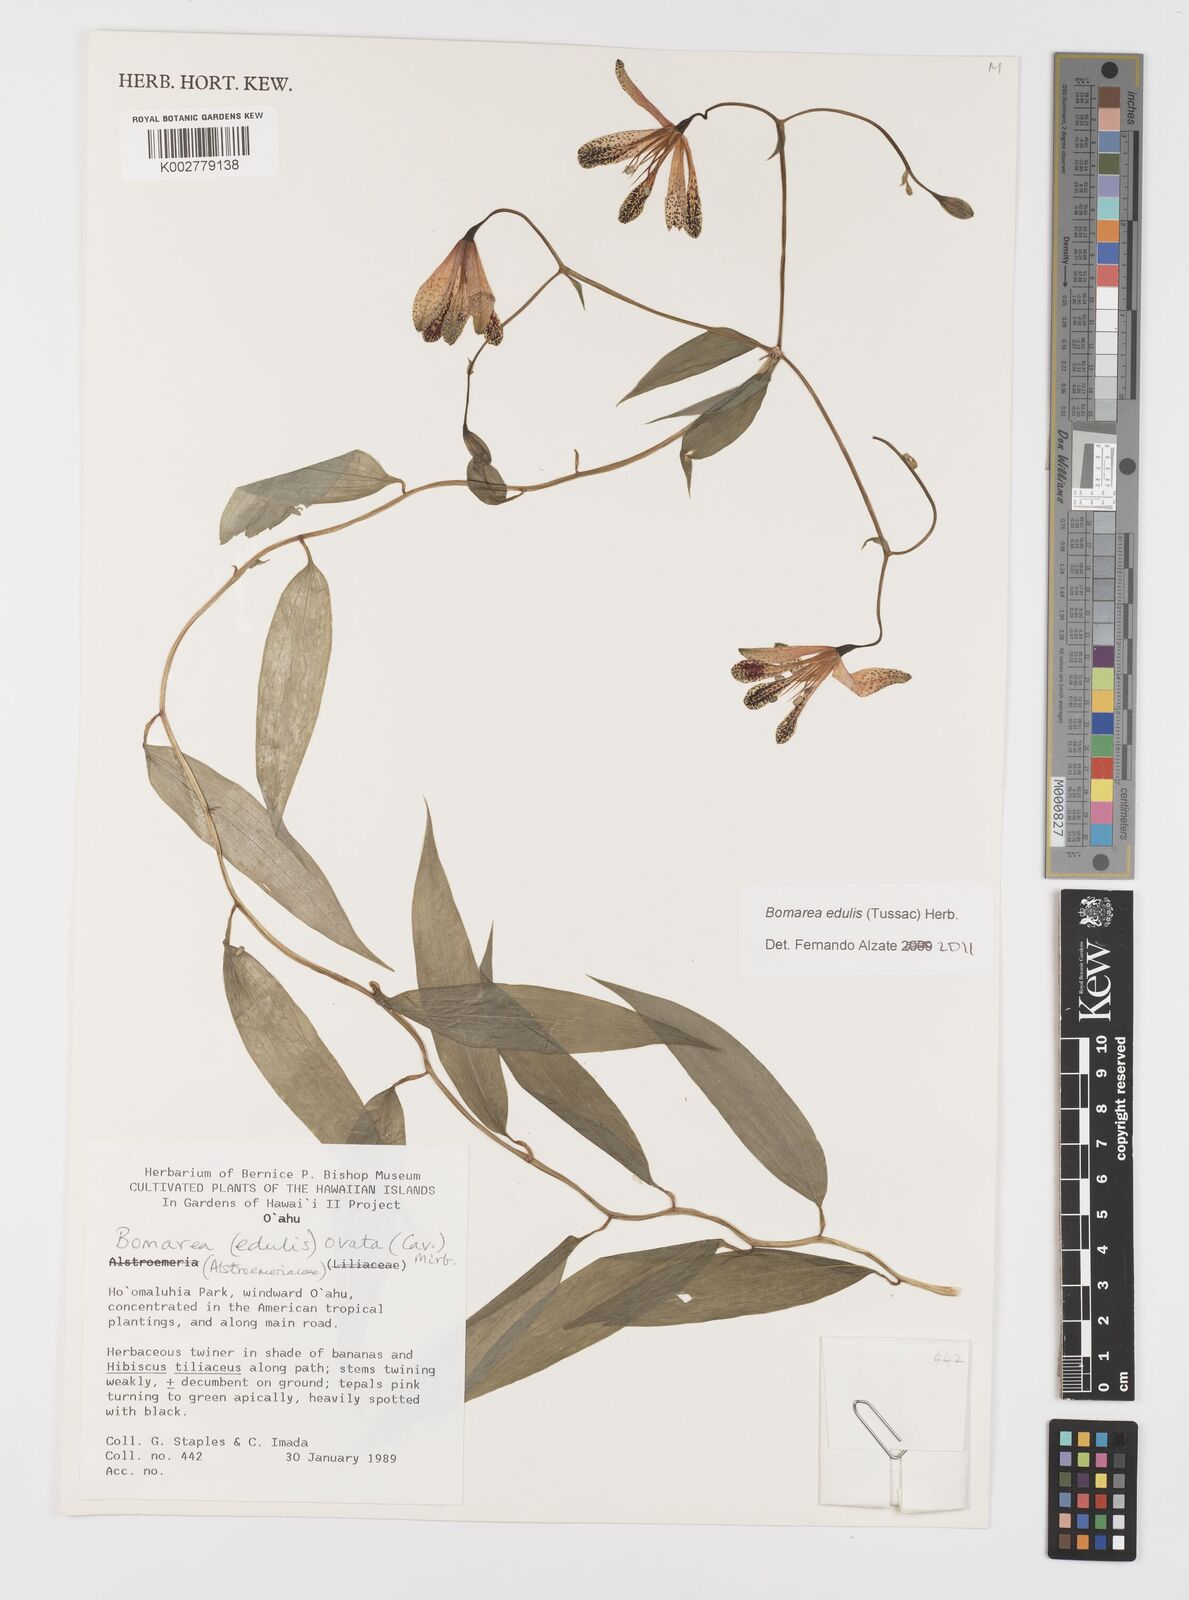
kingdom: Plantae
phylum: Tracheophyta
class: Liliopsida
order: Liliales
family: Alstroemeriaceae
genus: Bomarea
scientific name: Bomarea edulis
